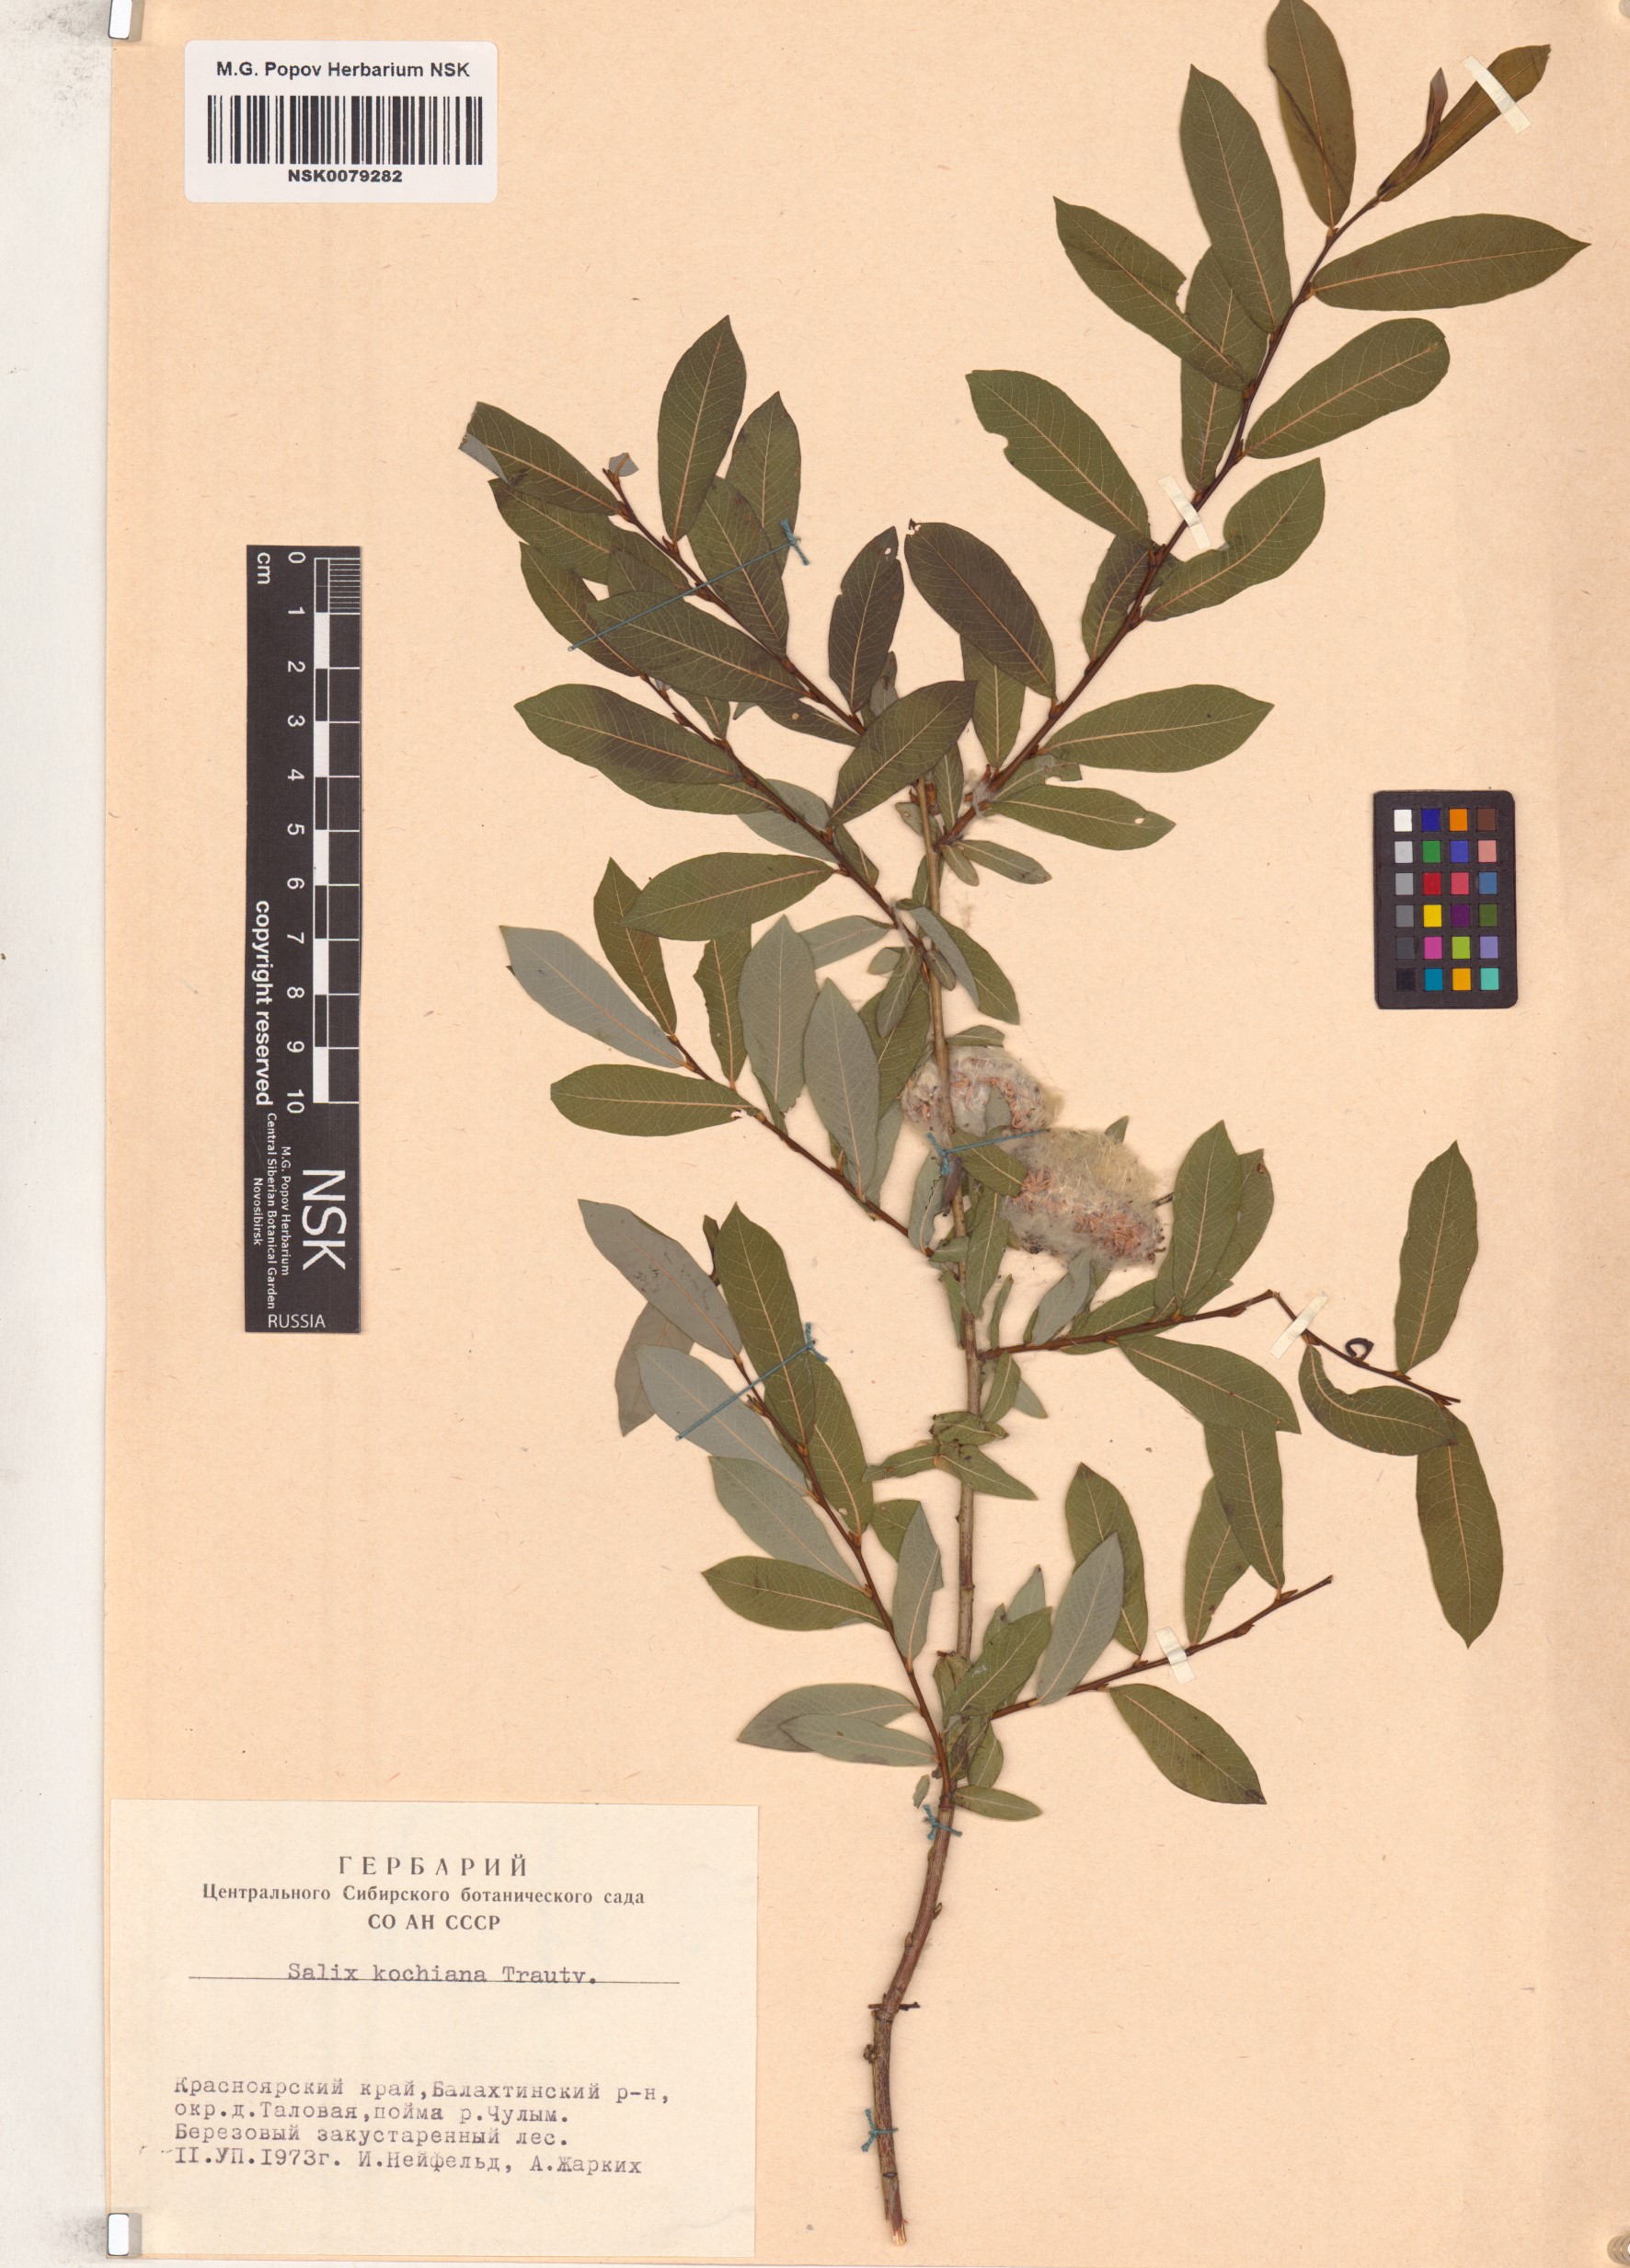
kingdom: Plantae
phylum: Tracheophyta
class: Magnoliopsida
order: Malpighiales
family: Salicaceae
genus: Salix
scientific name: Salix kochiana
